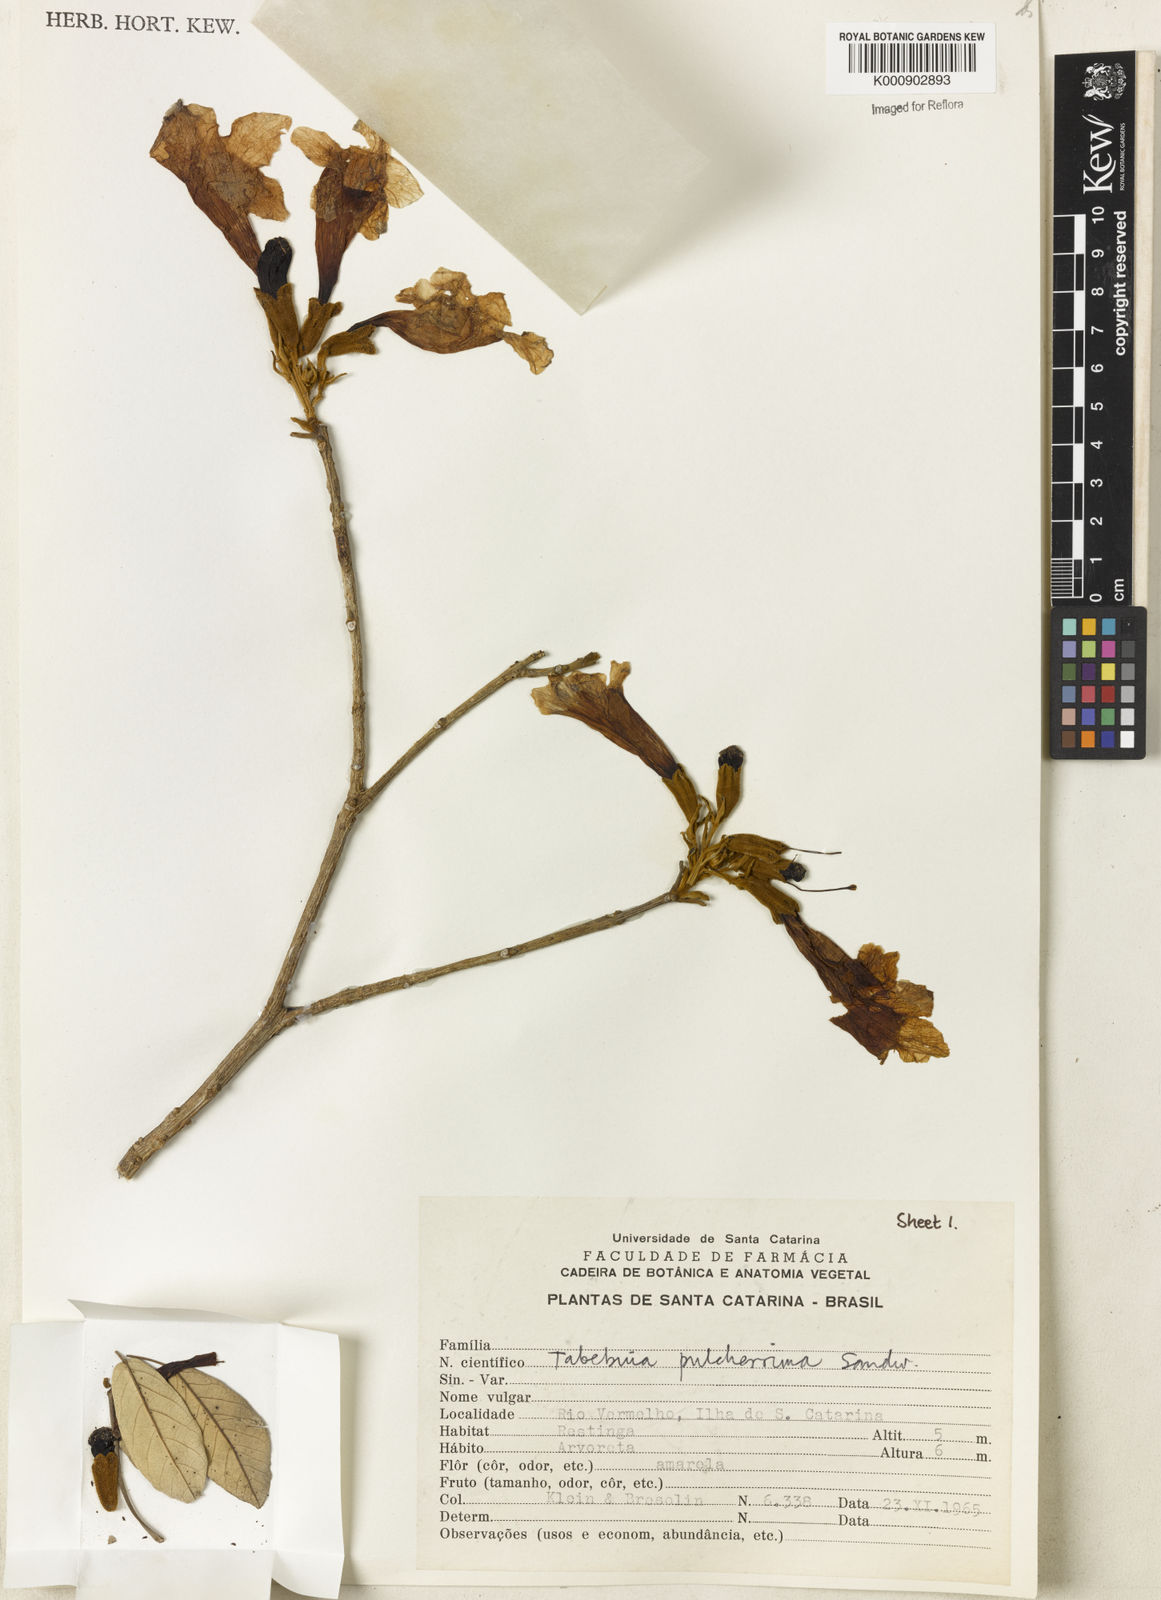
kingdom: Plantae
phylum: Tracheophyta
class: Magnoliopsida
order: Lamiales
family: Bignoniaceae
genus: Handroanthus
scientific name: Handroanthus pulcherrimus
